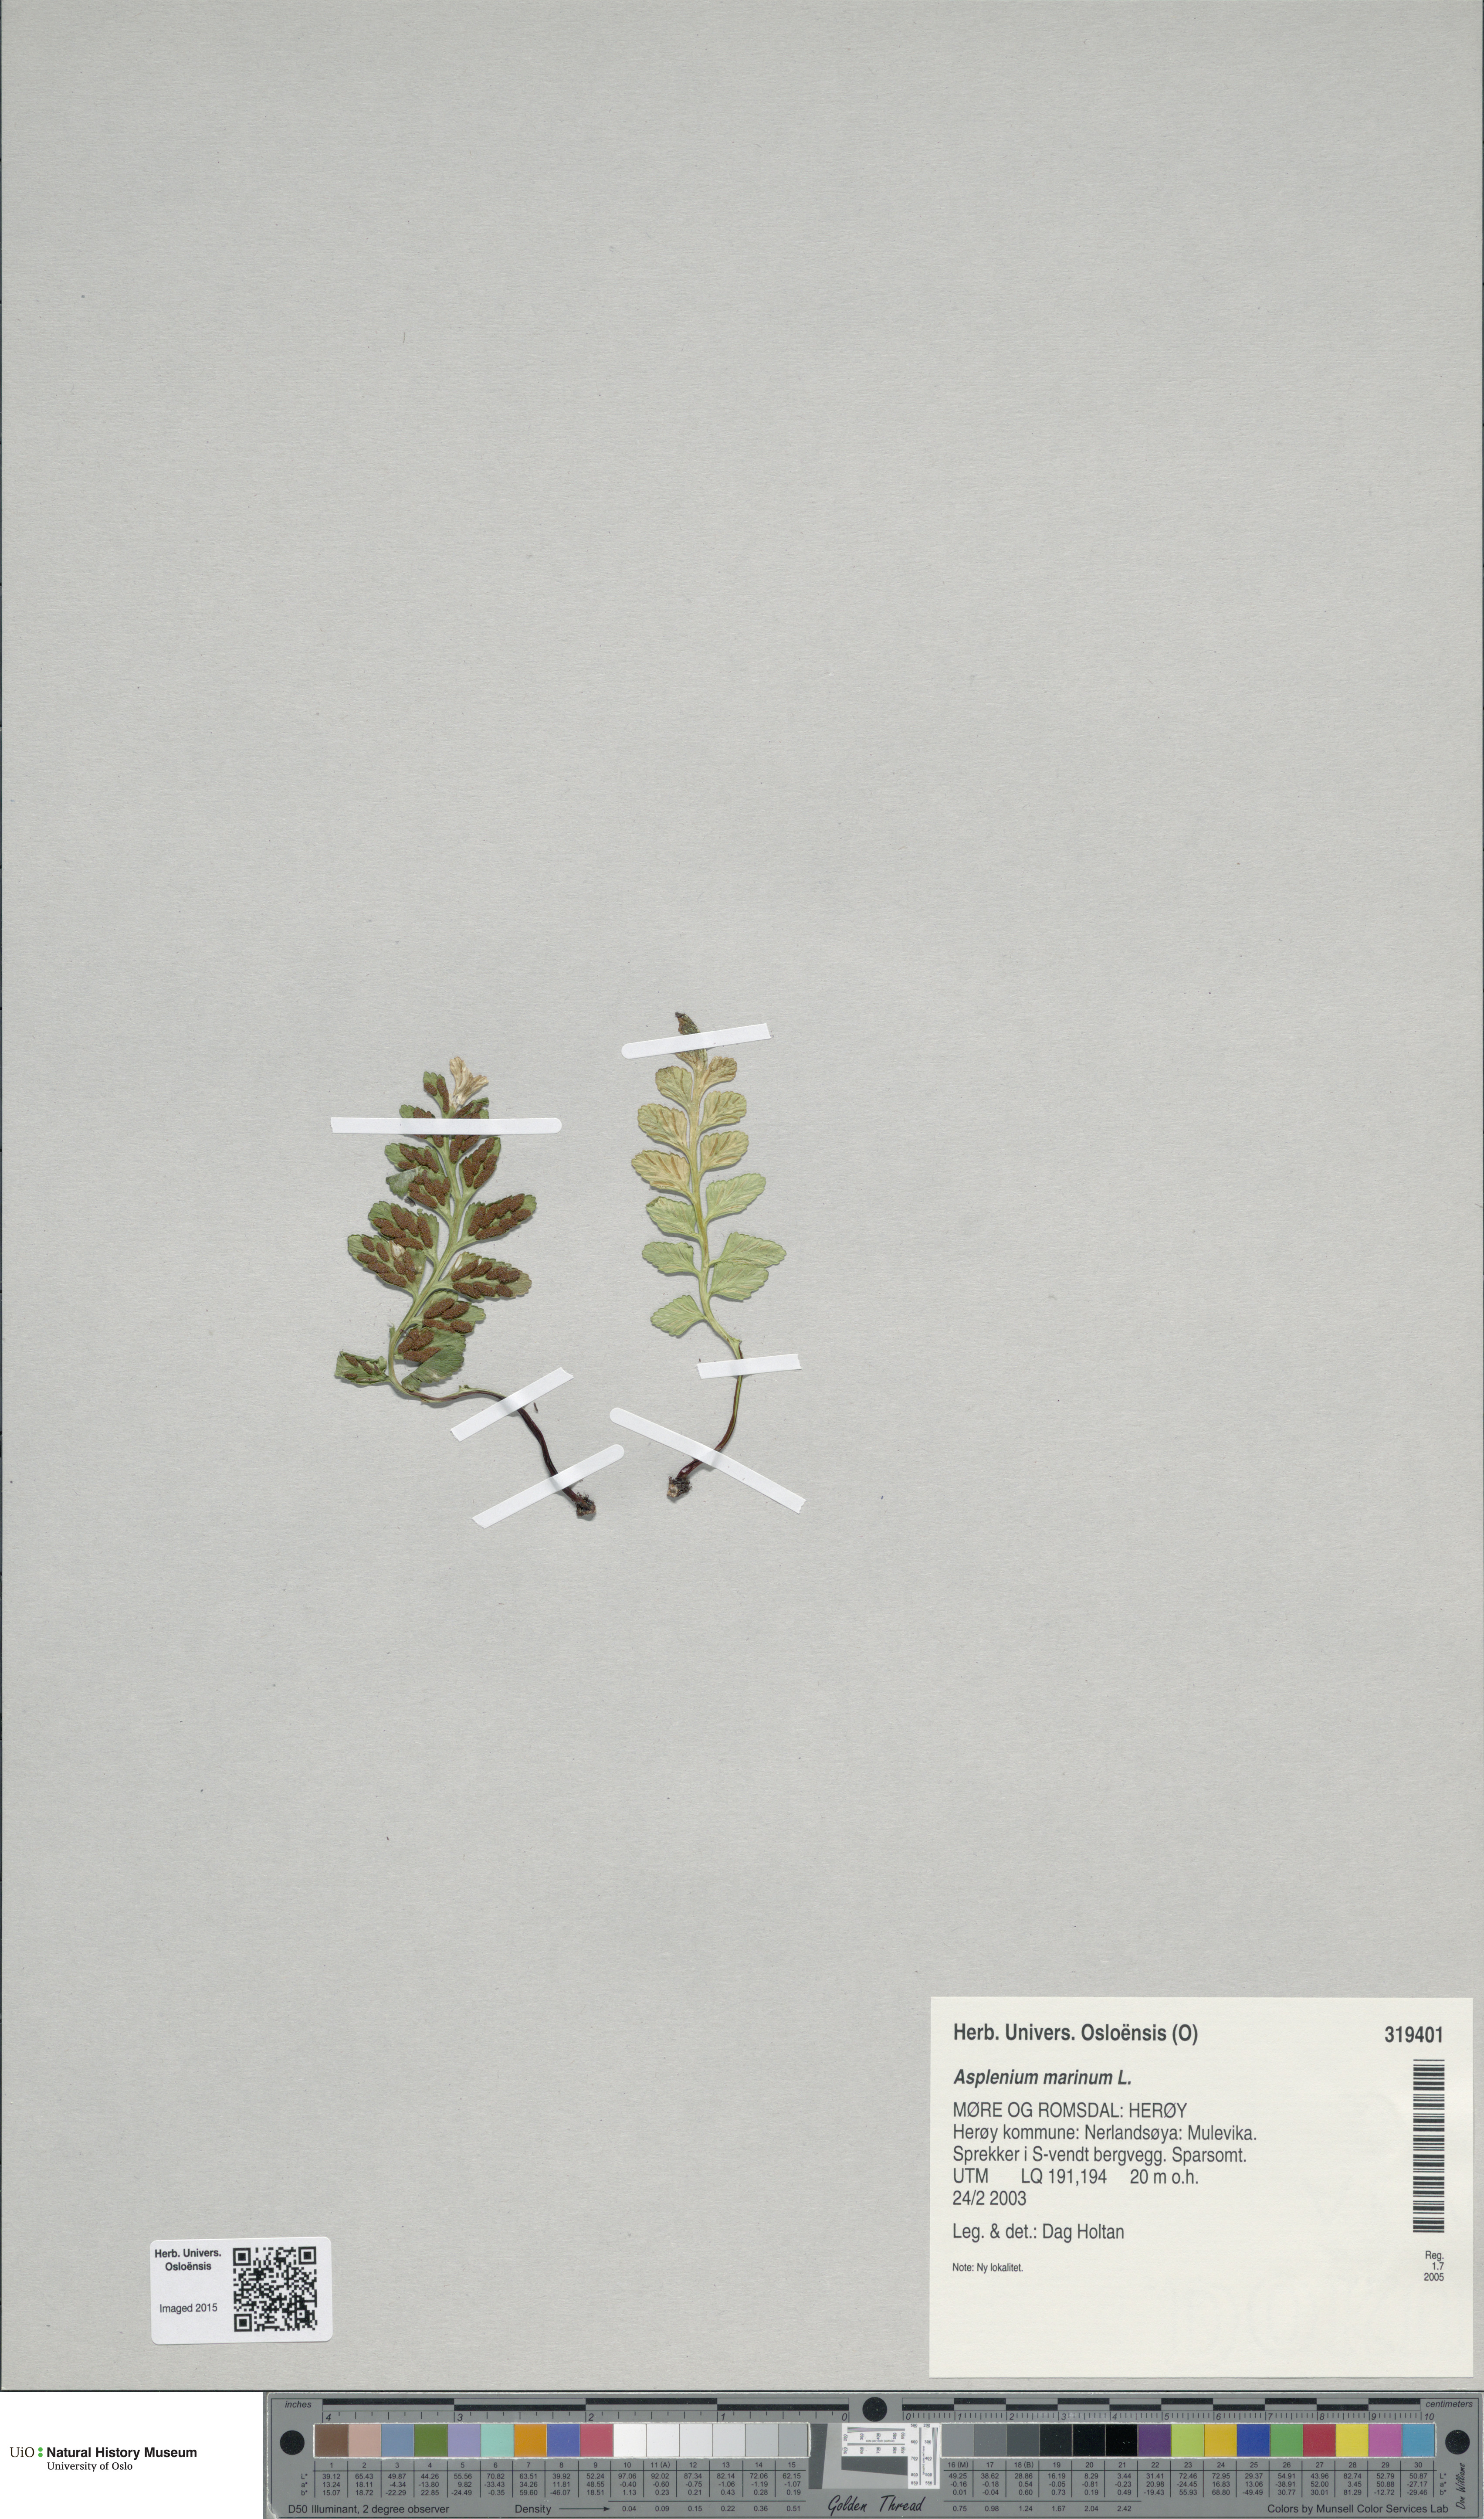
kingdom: Plantae
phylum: Tracheophyta
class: Polypodiopsida
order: Polypodiales
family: Aspleniaceae
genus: Asplenium
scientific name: Asplenium marinum
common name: Sea spleenwort
